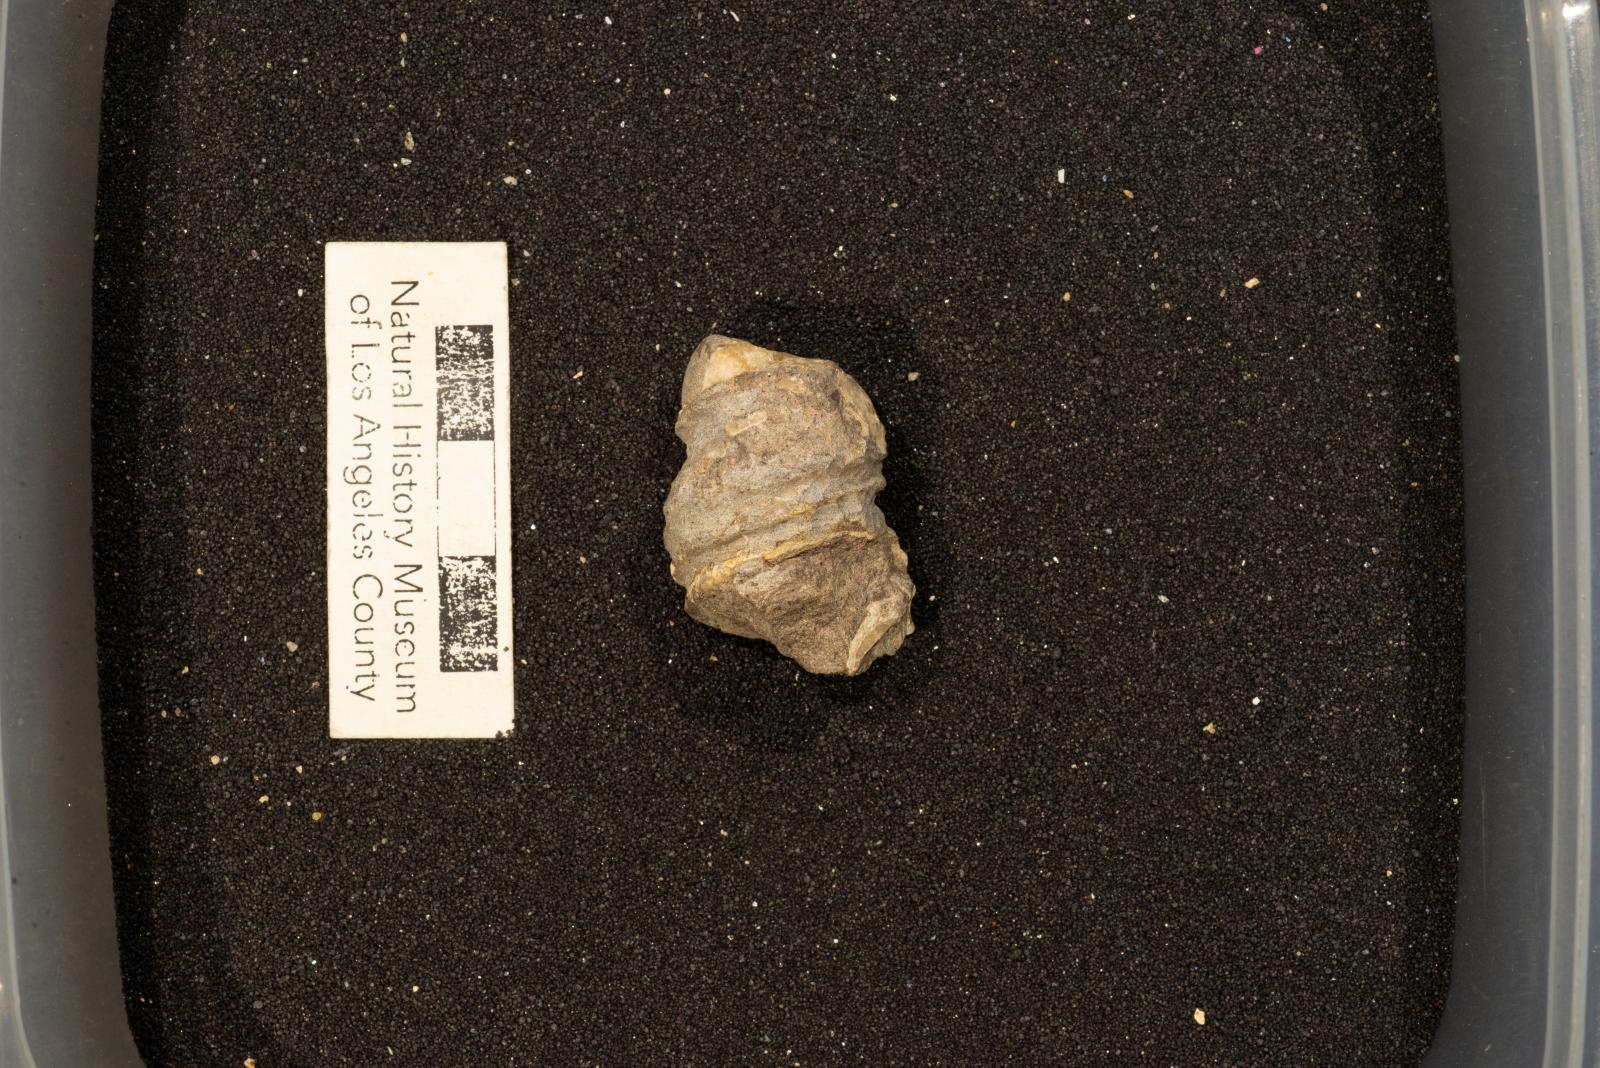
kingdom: Animalia
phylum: Mollusca
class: Gastropoda
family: Turritellidae
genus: Turritella
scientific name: Turritella chicoensis
